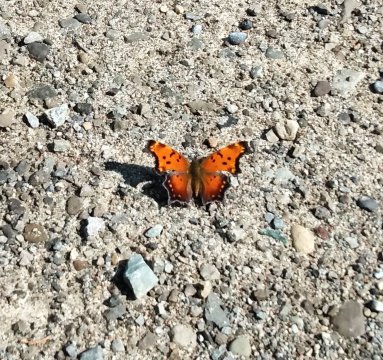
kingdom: Animalia
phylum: Arthropoda
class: Insecta
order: Lepidoptera
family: Nymphalidae
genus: Polygonia
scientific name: Polygonia progne
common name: Gray Comma
